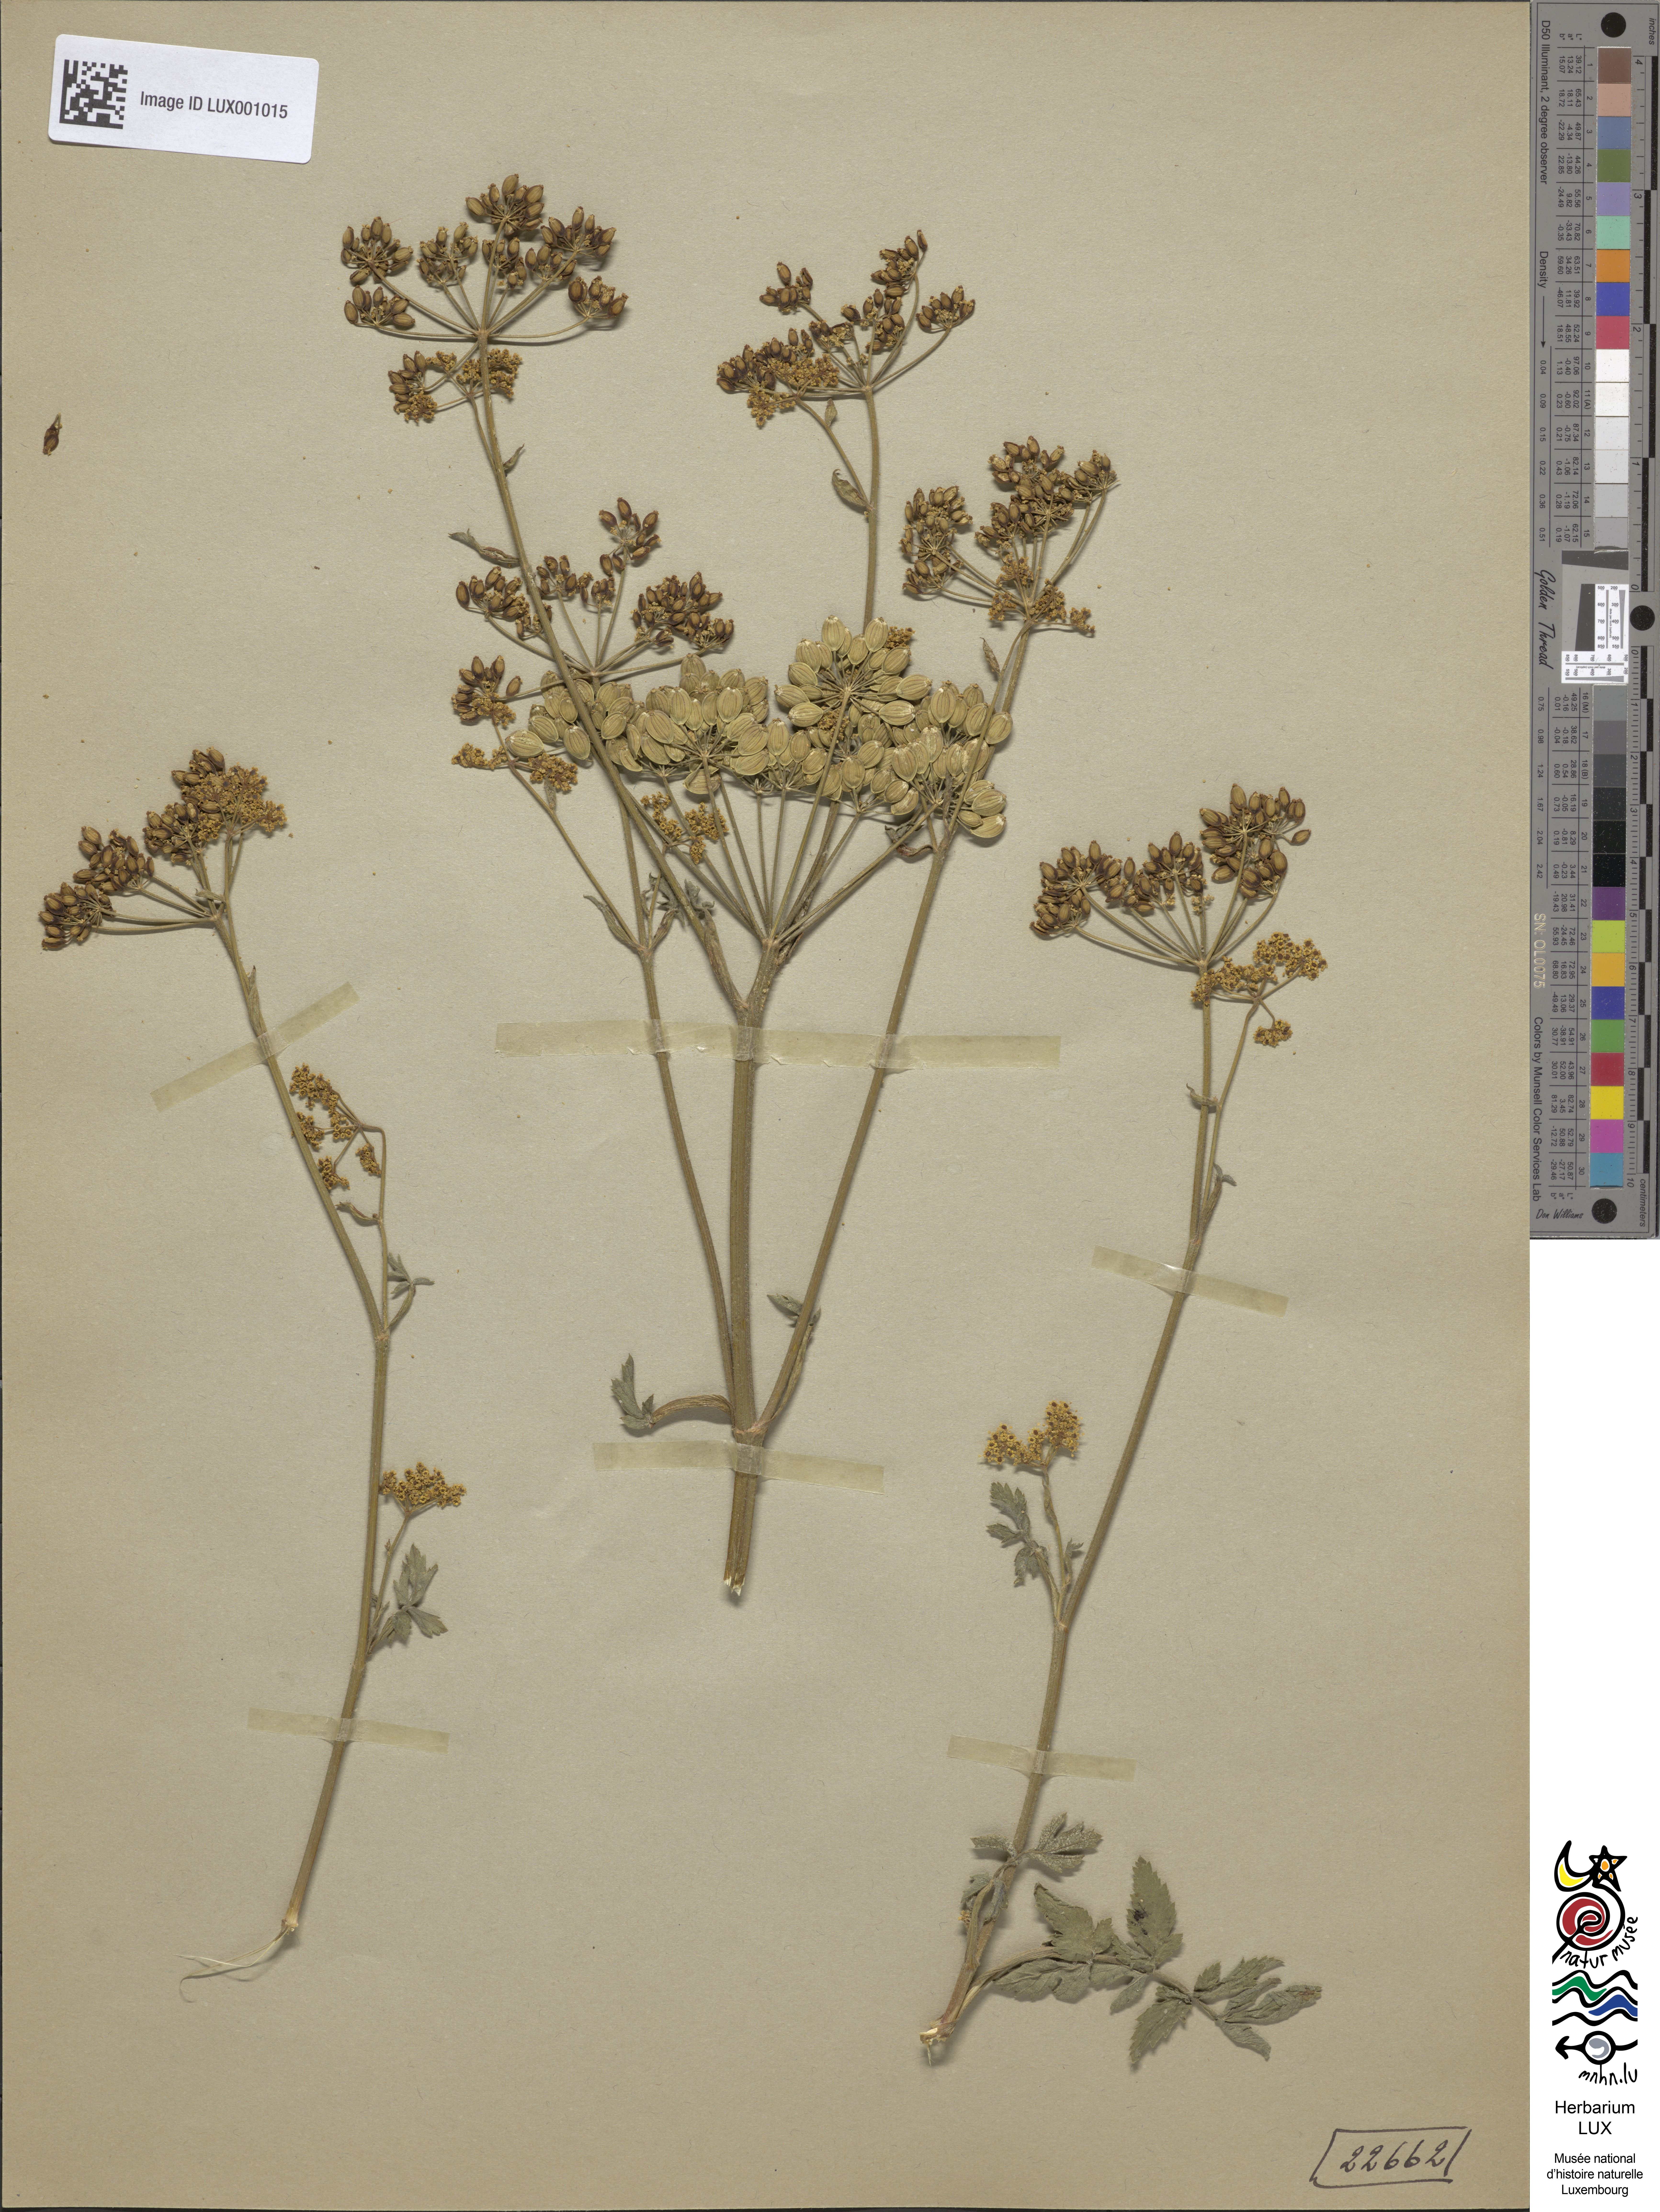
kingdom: Plantae
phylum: Tracheophyta
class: Magnoliopsida
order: Apiales
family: Apiaceae
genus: Pastinaca
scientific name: Pastinaca sativa
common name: Wild parsnip
